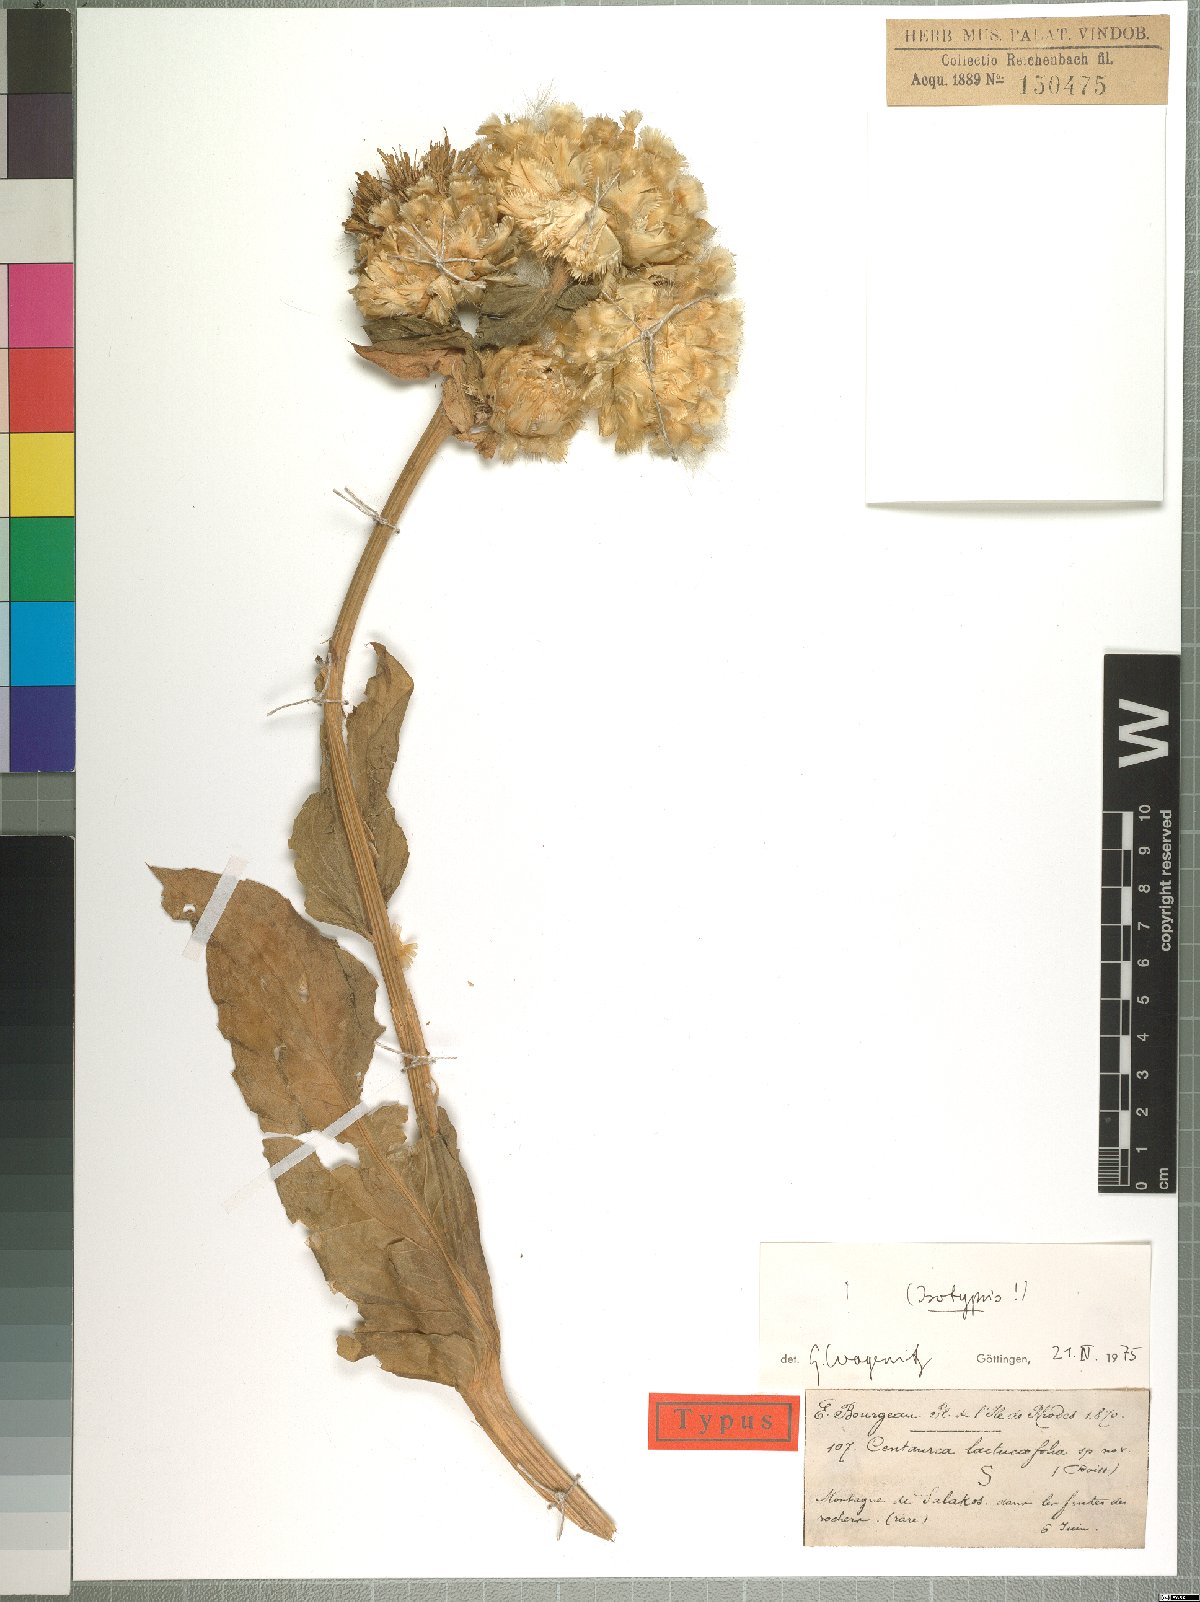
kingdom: Plantae
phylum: Tracheophyta
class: Magnoliopsida
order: Asterales
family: Asteraceae
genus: Centaurea
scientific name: Centaurea lactucifolia
